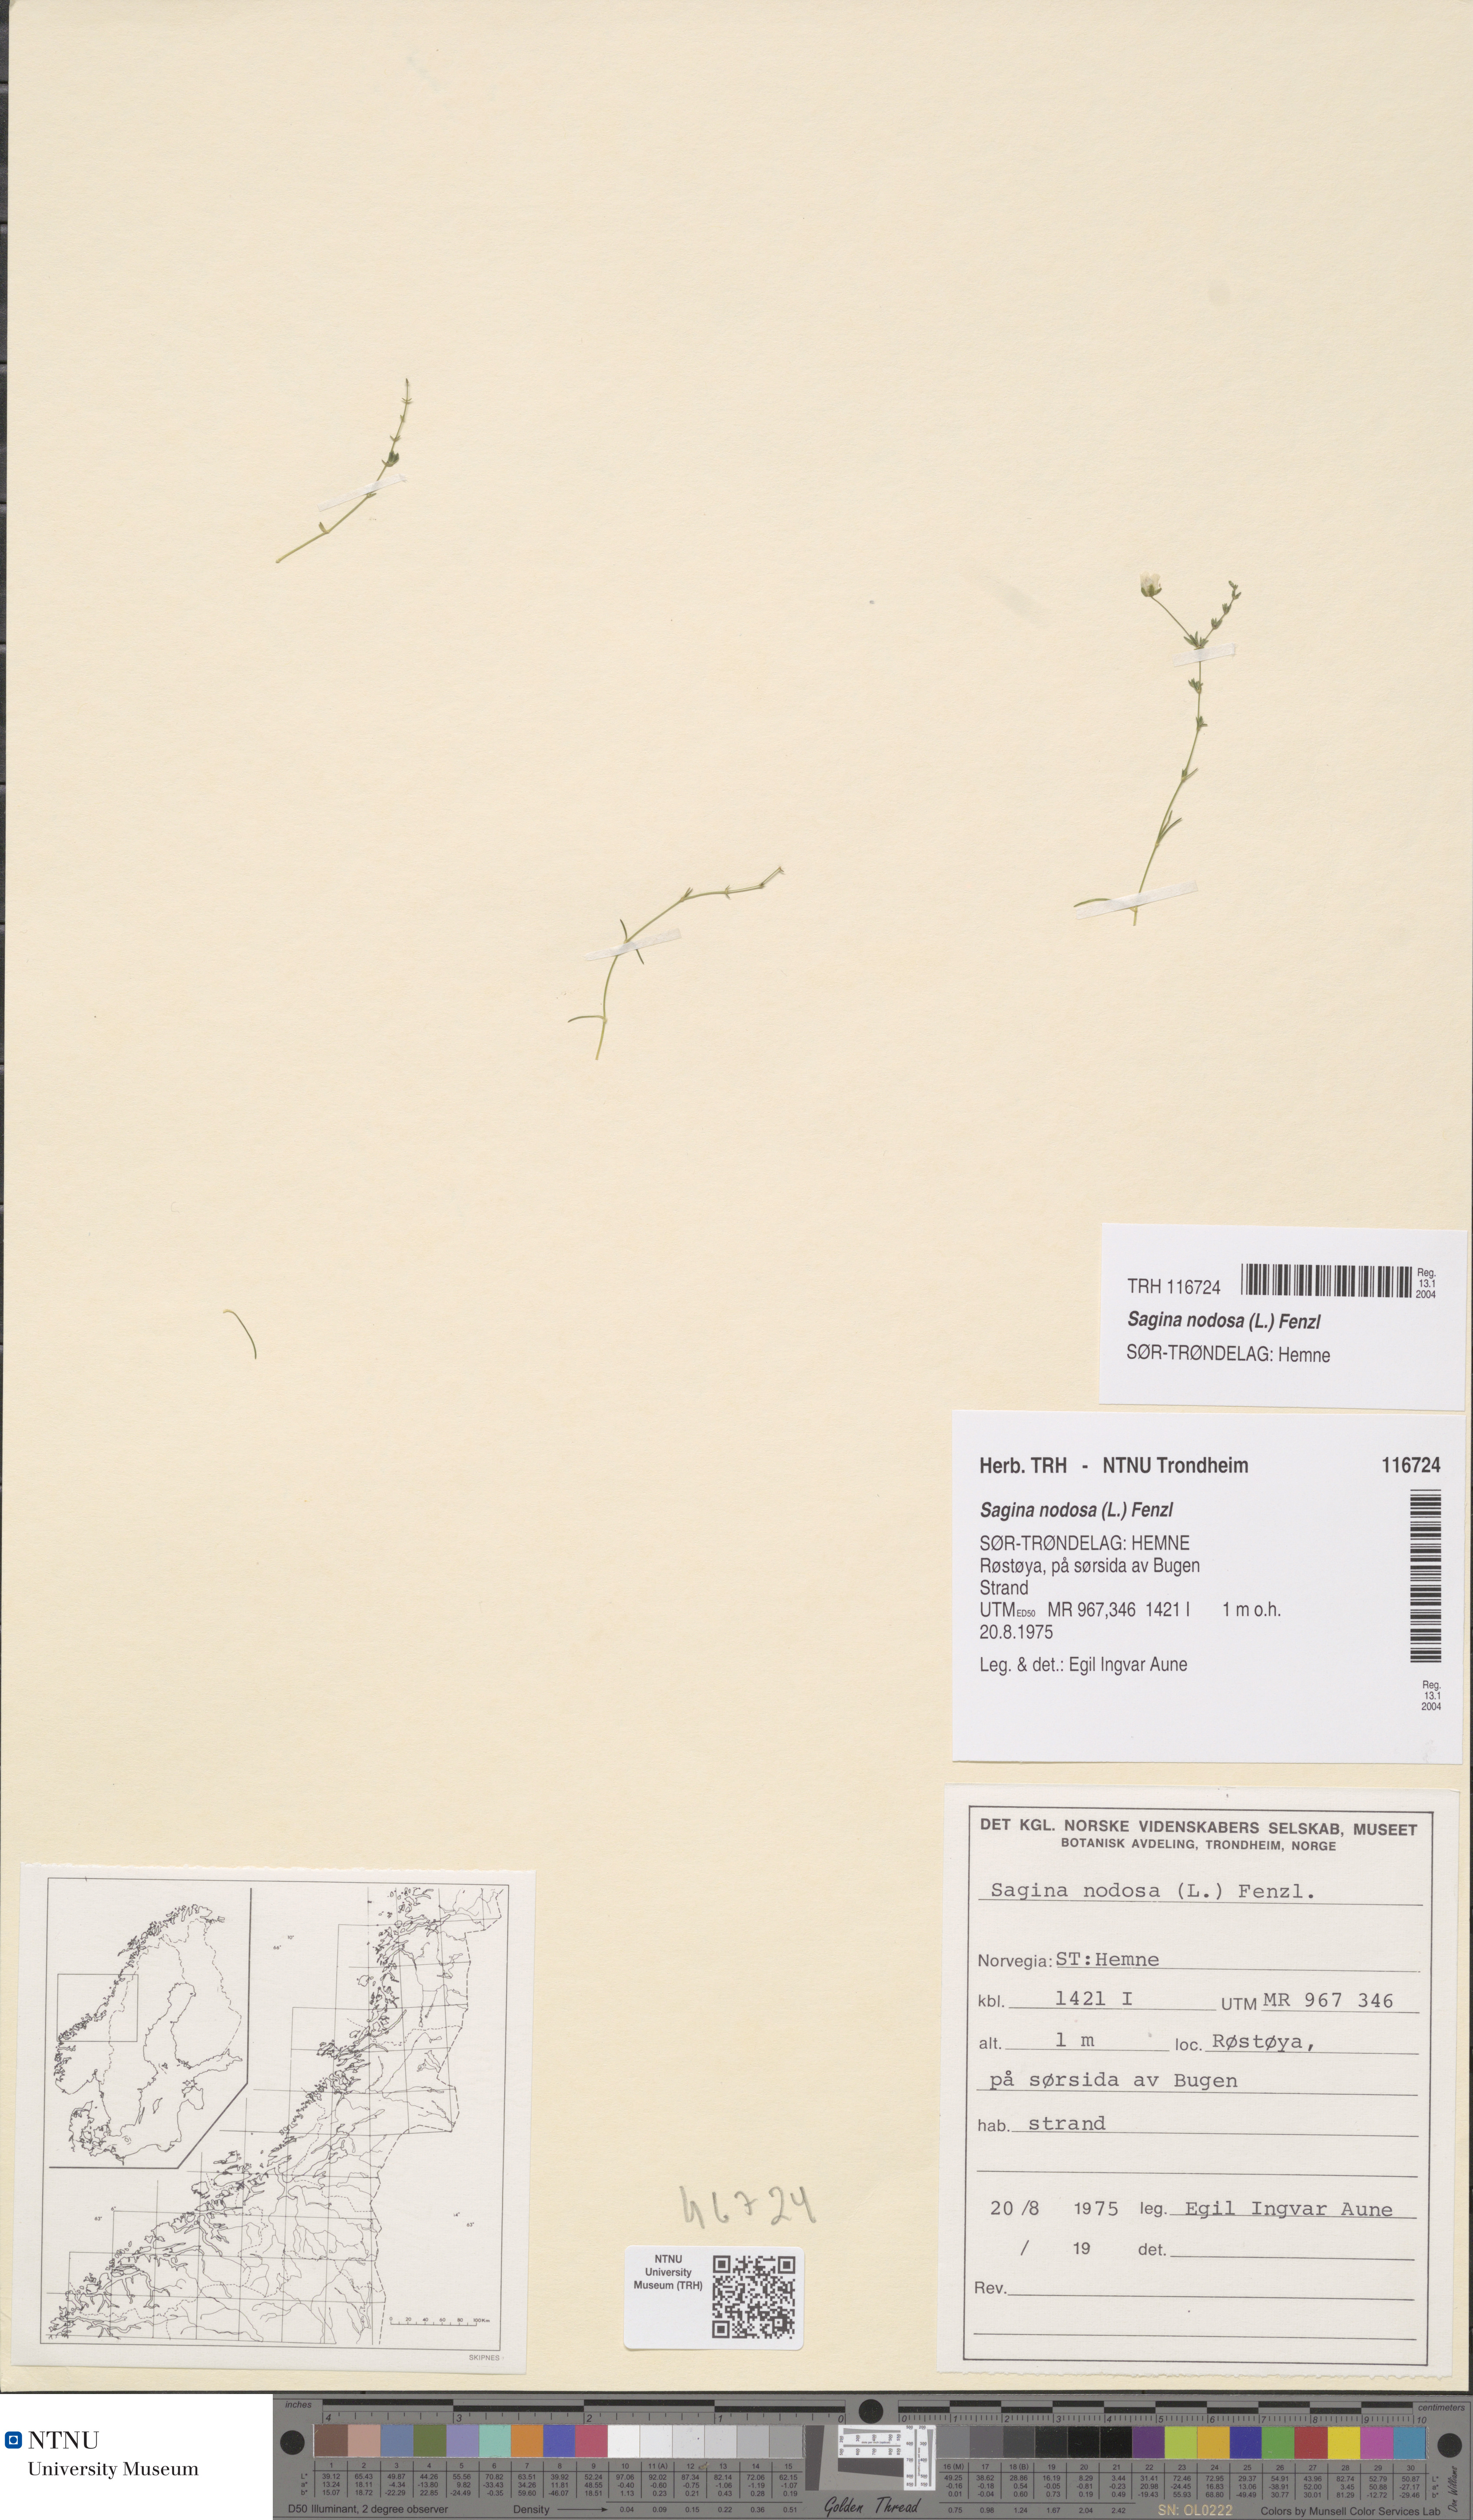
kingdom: Plantae
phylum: Tracheophyta
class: Magnoliopsida
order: Caryophyllales
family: Caryophyllaceae
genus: Sagina
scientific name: Sagina nodosa
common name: Knotted pearlwort
